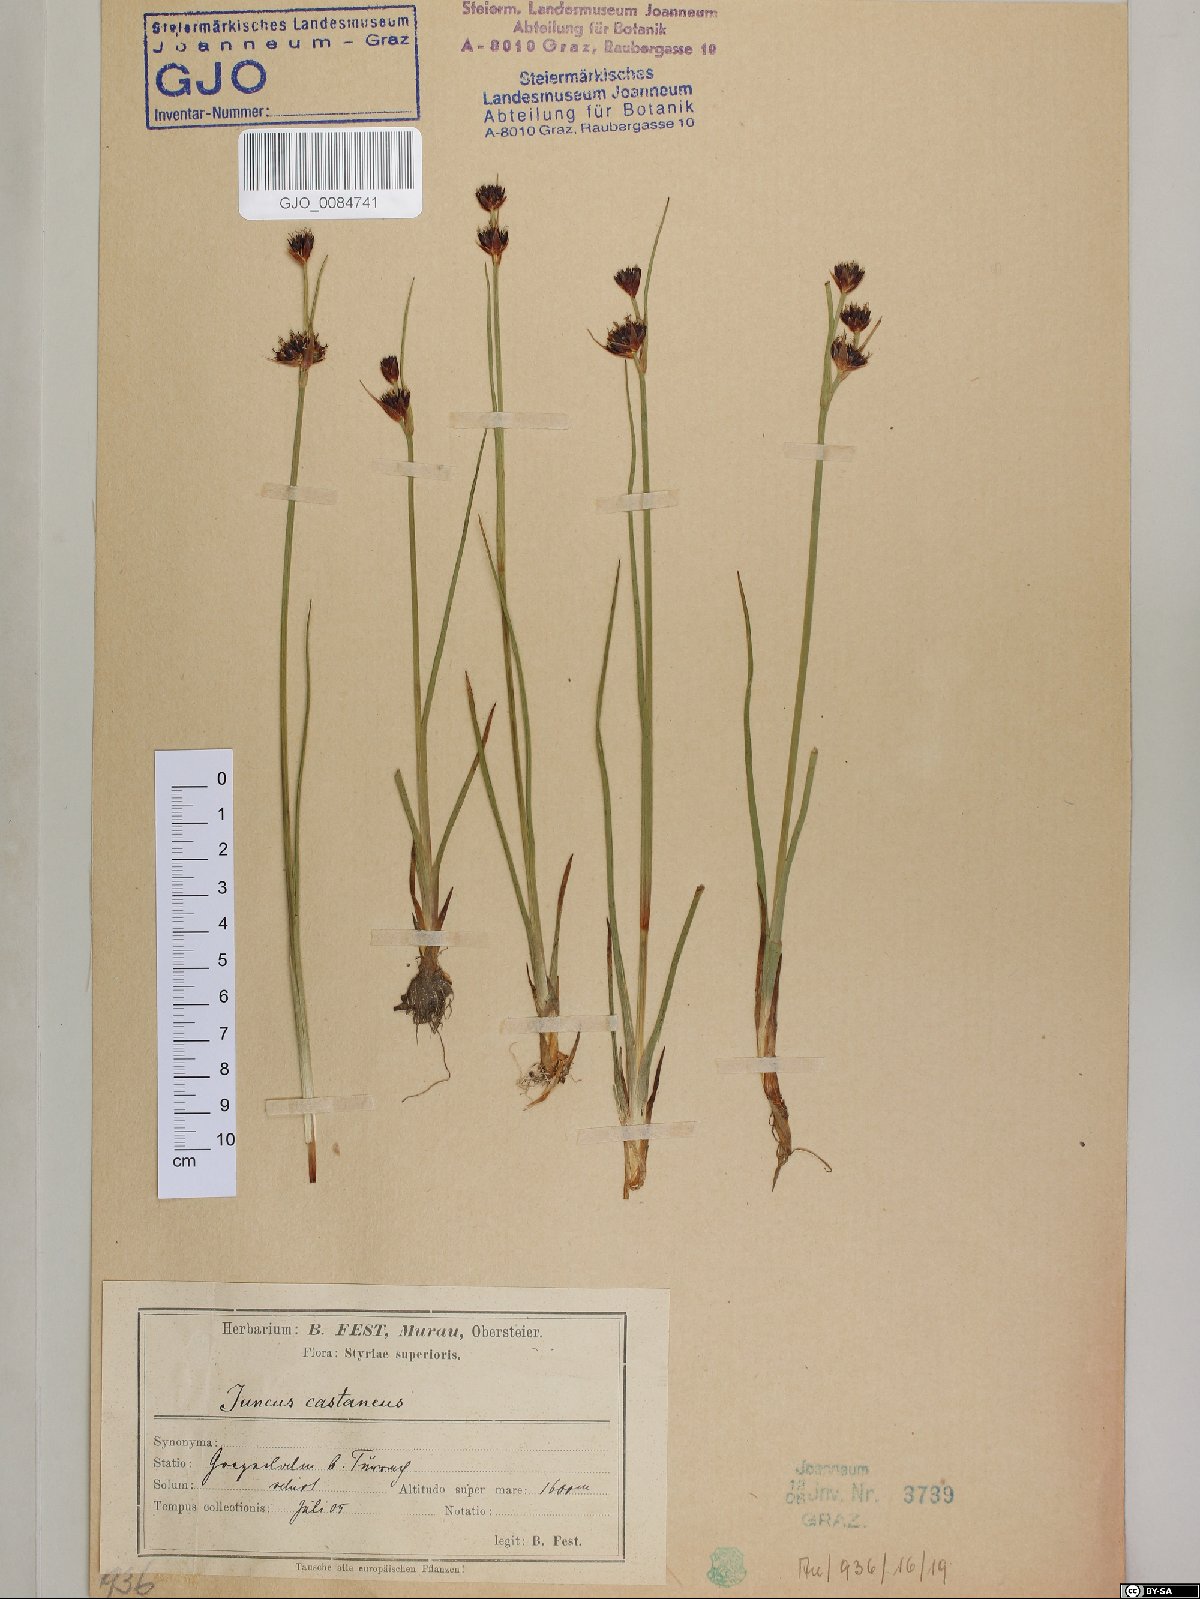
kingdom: Plantae
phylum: Tracheophyta
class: Liliopsida
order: Poales
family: Juncaceae
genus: Juncus
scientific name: Juncus castaneus
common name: Chestnut rush
